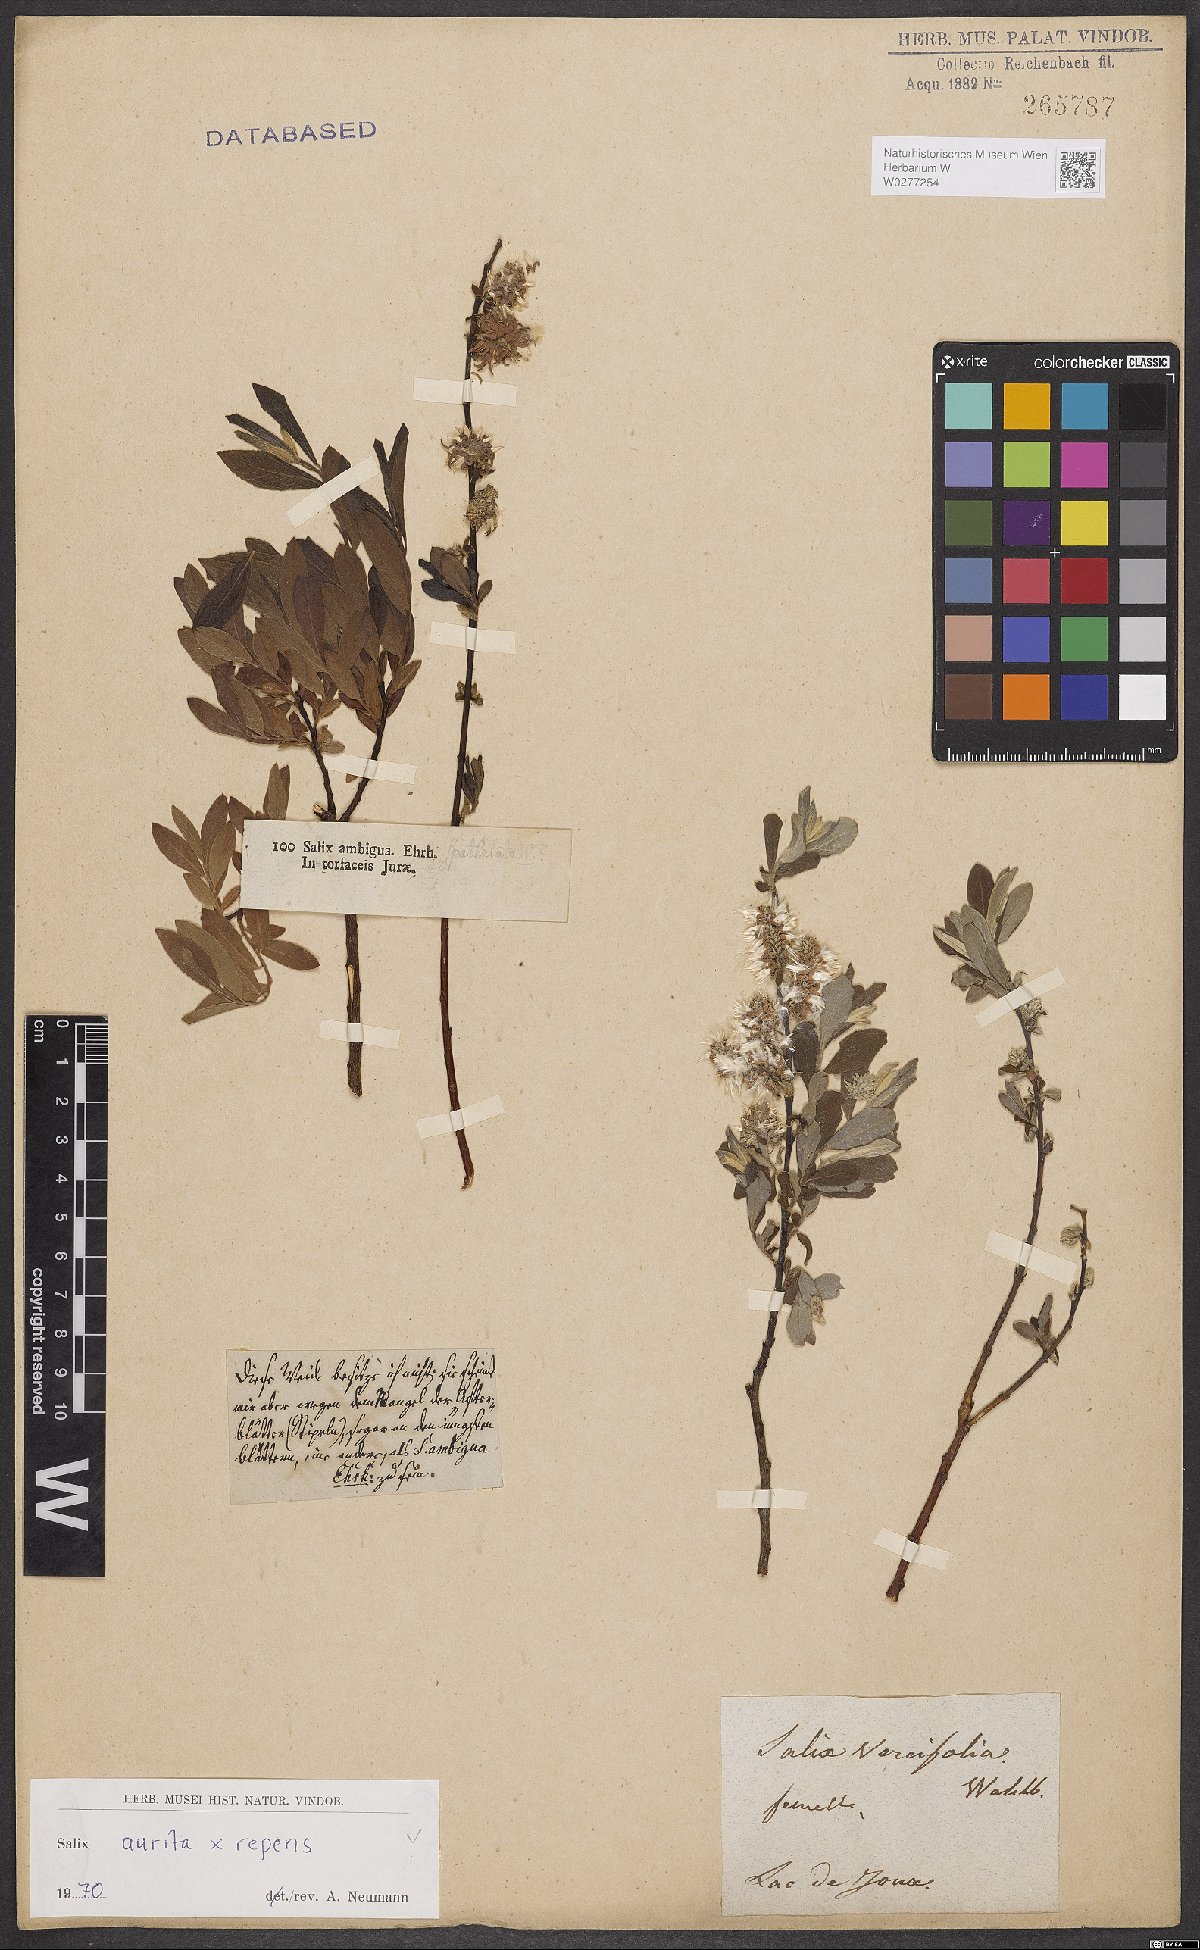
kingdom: Plantae
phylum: Tracheophyta
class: Magnoliopsida
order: Malpighiales
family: Salicaceae
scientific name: Salicaceae
